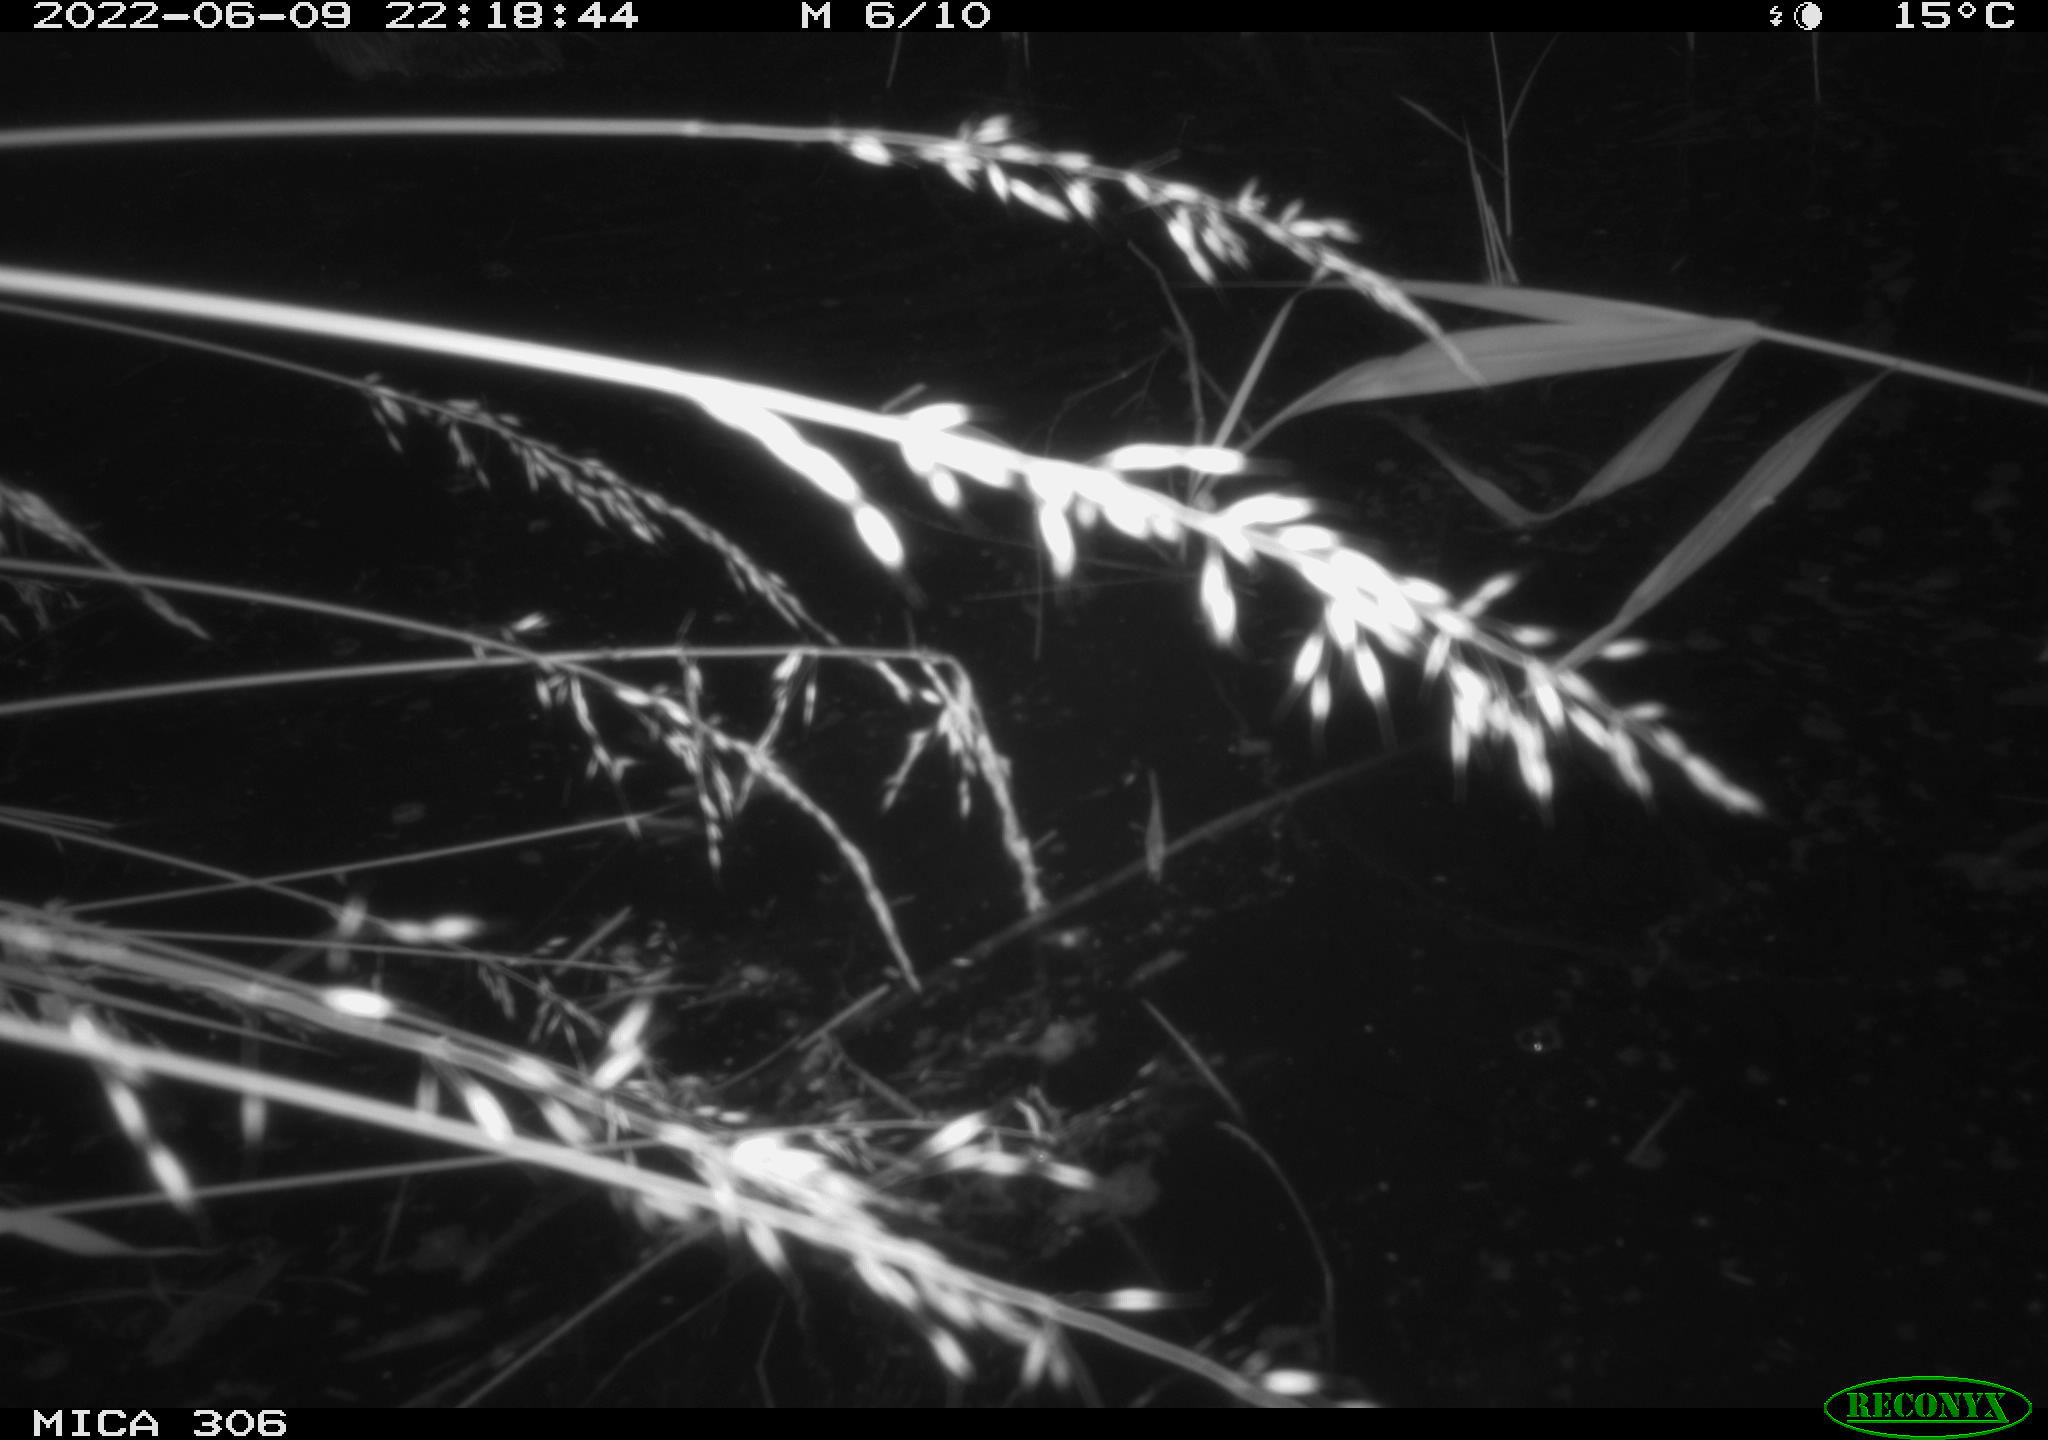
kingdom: Animalia
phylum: Chordata
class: Aves
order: Anseriformes
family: Anatidae
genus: Anas
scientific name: Anas platyrhynchos
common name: Mallard
